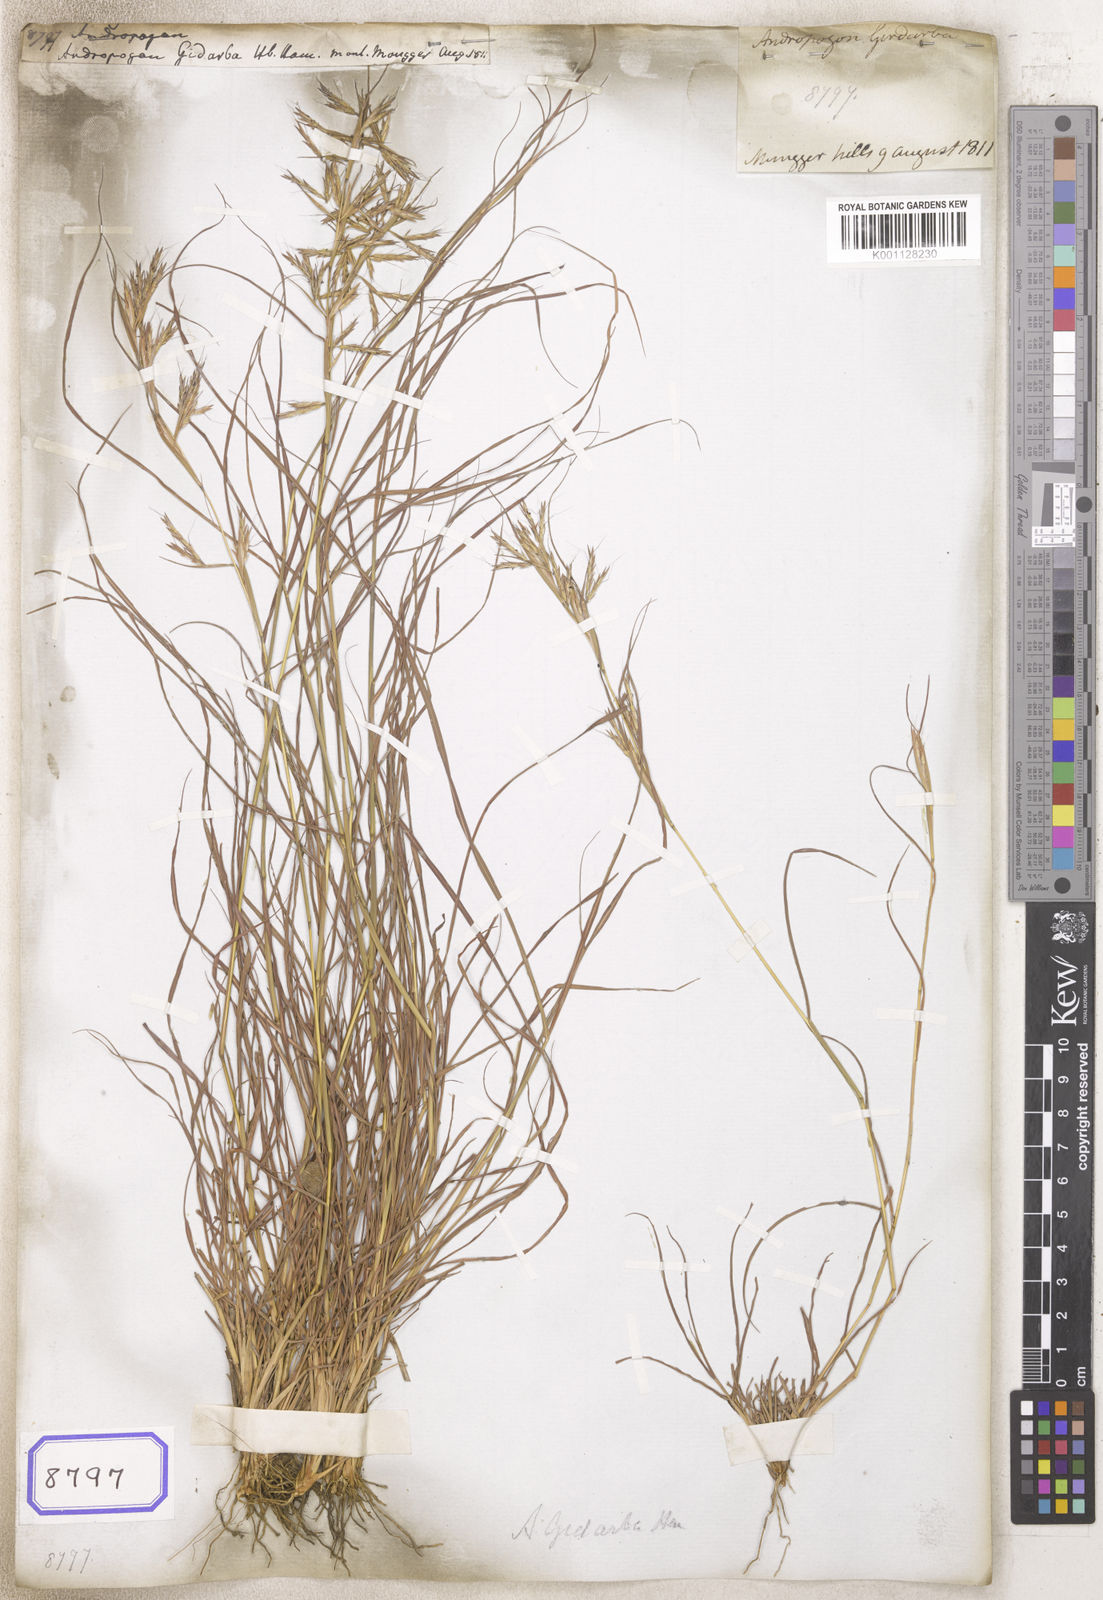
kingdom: Plantae
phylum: Tracheophyta
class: Liliopsida
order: Poales
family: Poaceae
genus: Andropogon
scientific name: Andropogon
